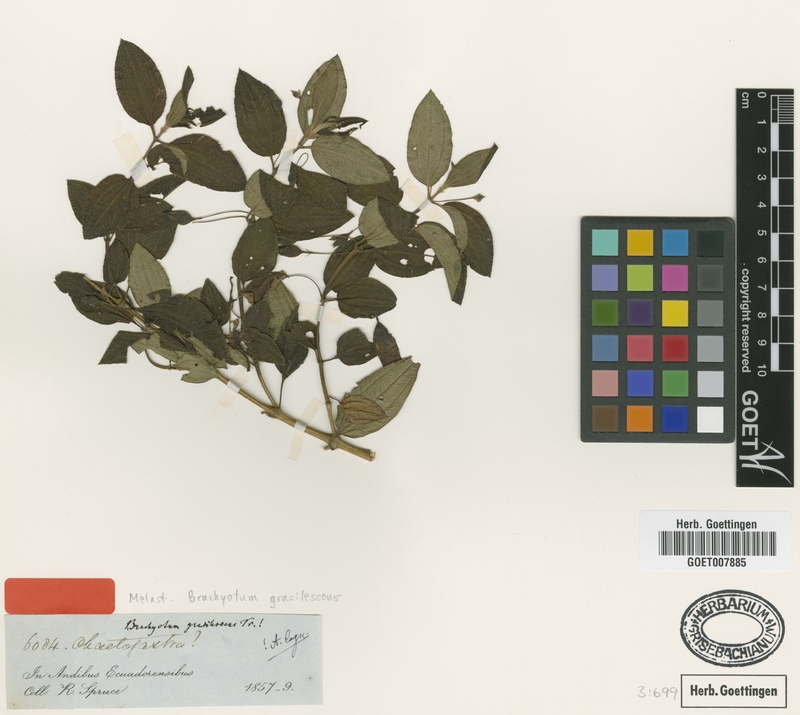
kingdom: Plantae
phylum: Tracheophyta
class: Magnoliopsida
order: Myrtales
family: Melastomataceae
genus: Brachyotum
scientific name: Brachyotum gracilescens
